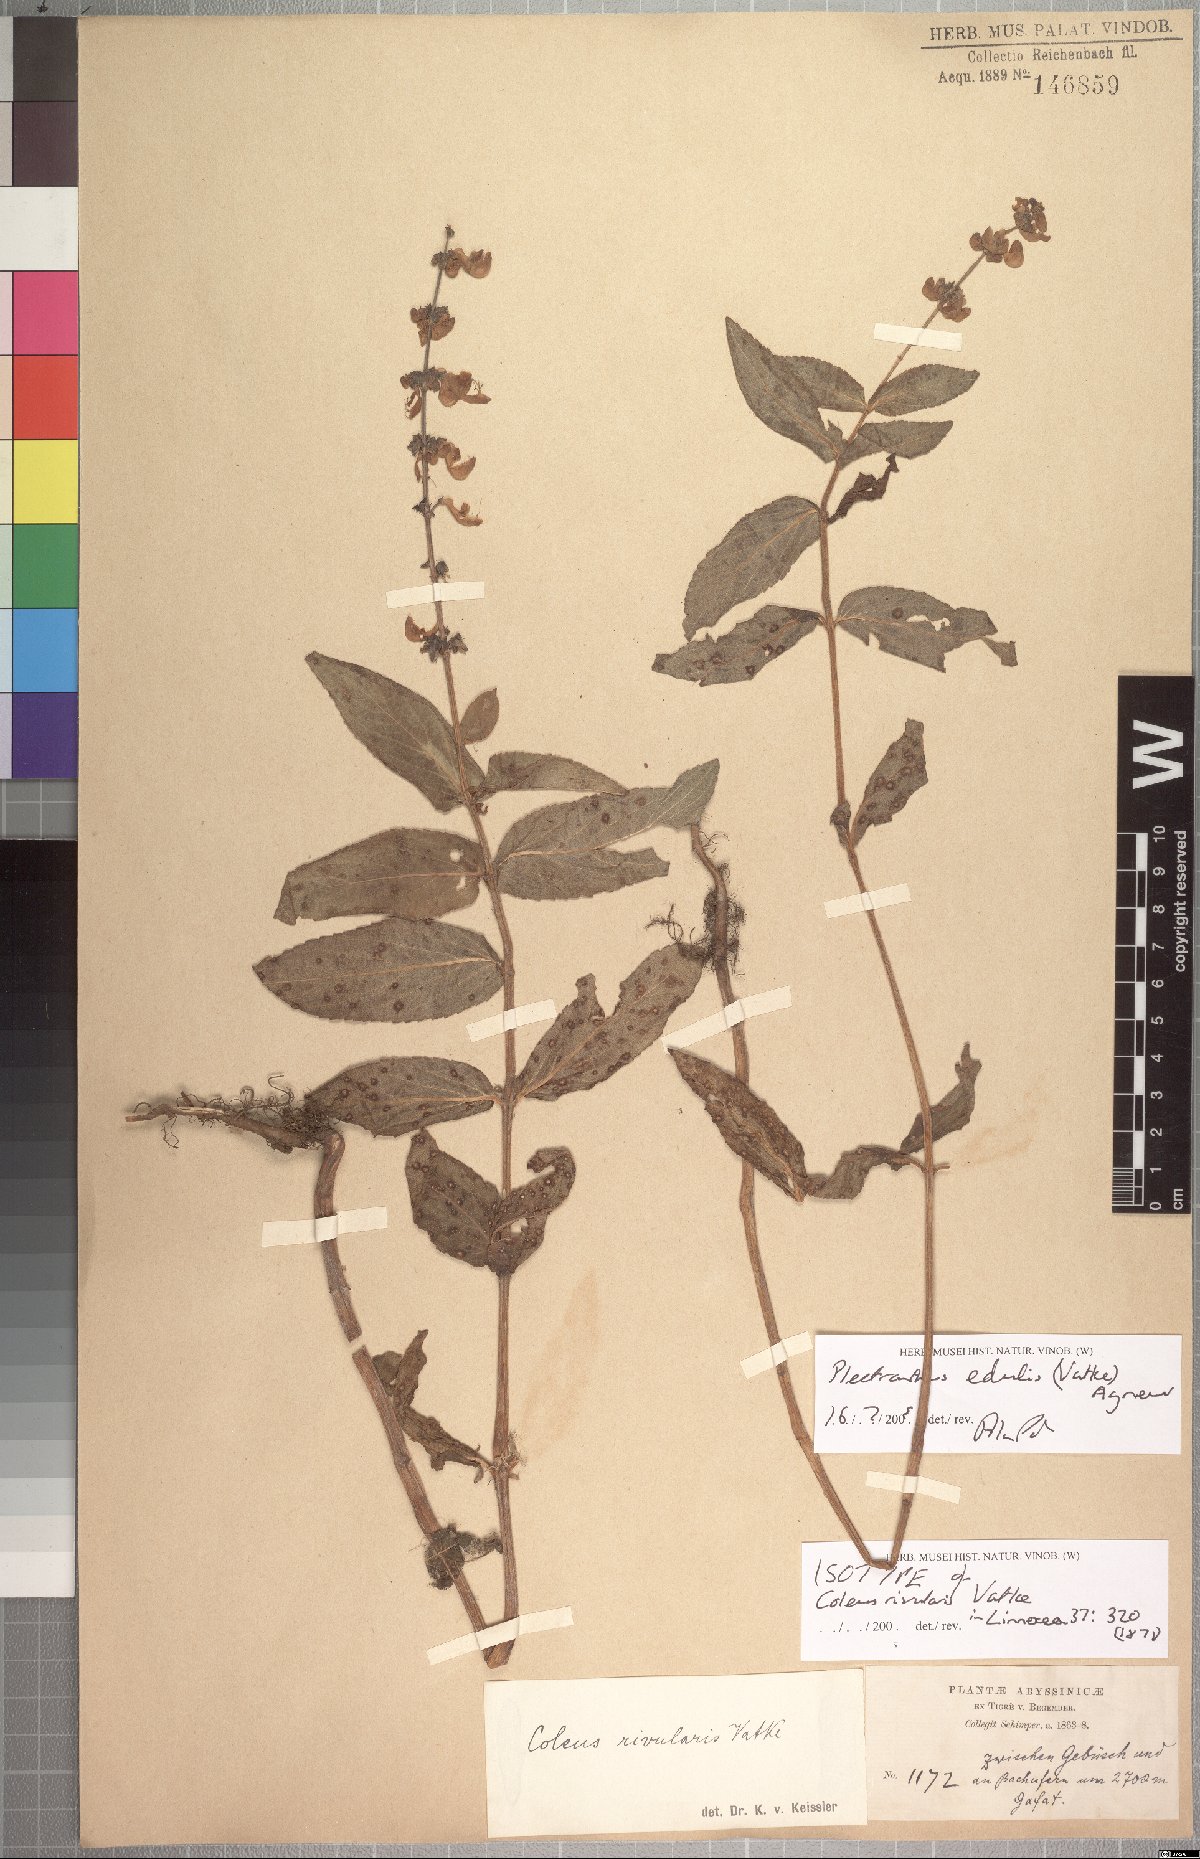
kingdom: Plantae
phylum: Tracheophyta
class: Magnoliopsida
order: Lamiales
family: Lamiaceae
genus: Coleus
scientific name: Coleus maculosus
